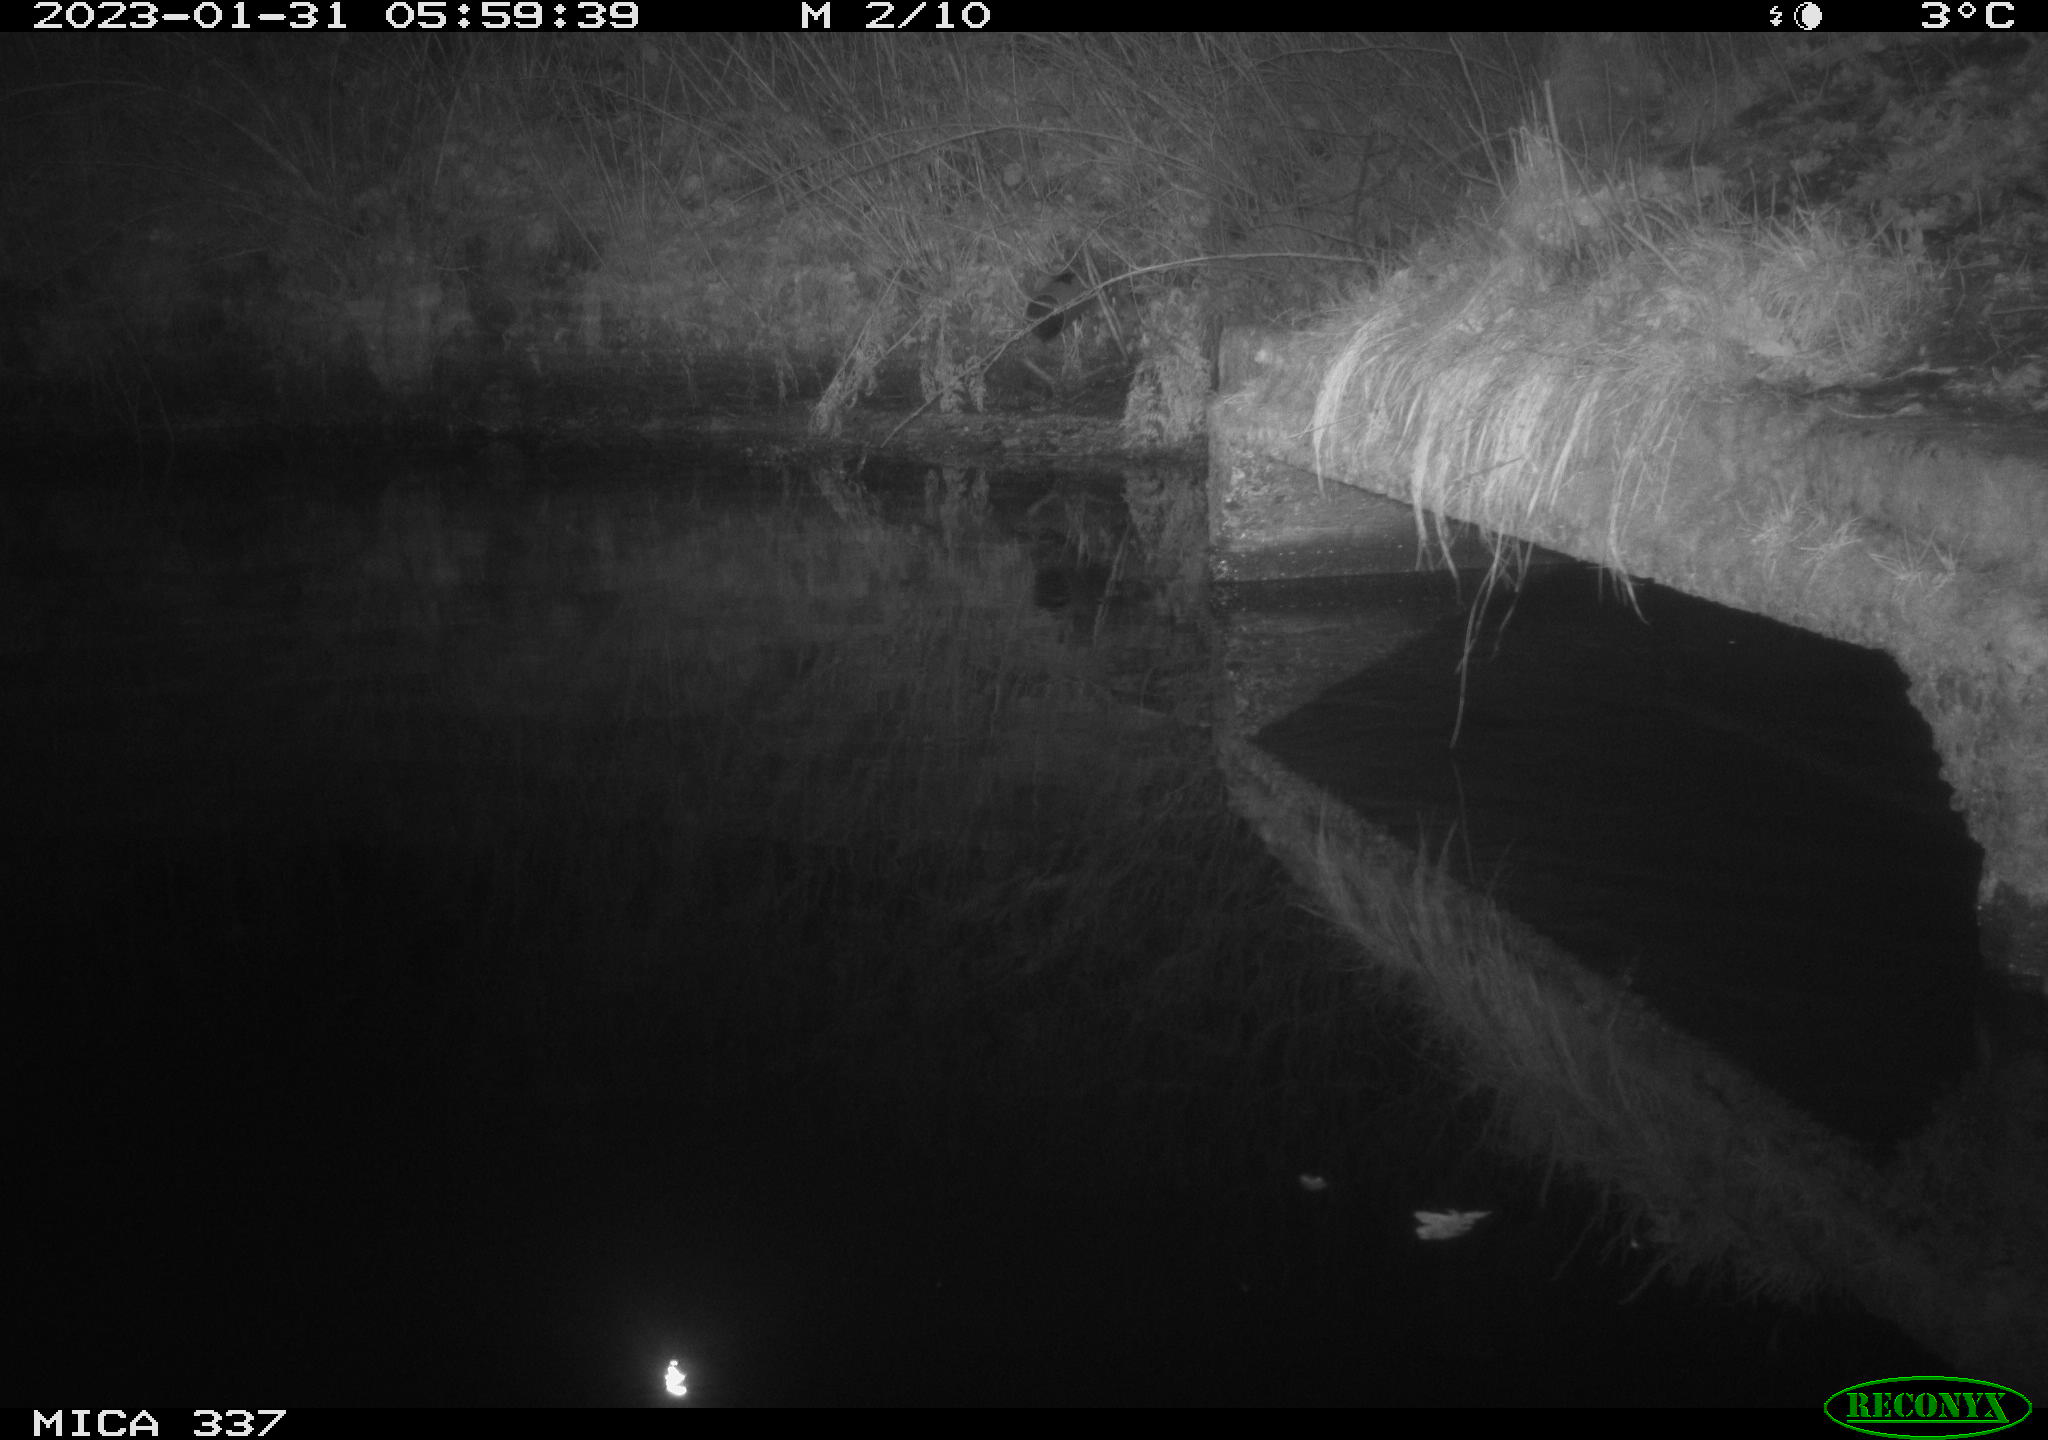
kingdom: Animalia
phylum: Chordata
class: Mammalia
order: Rodentia
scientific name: Rodentia
